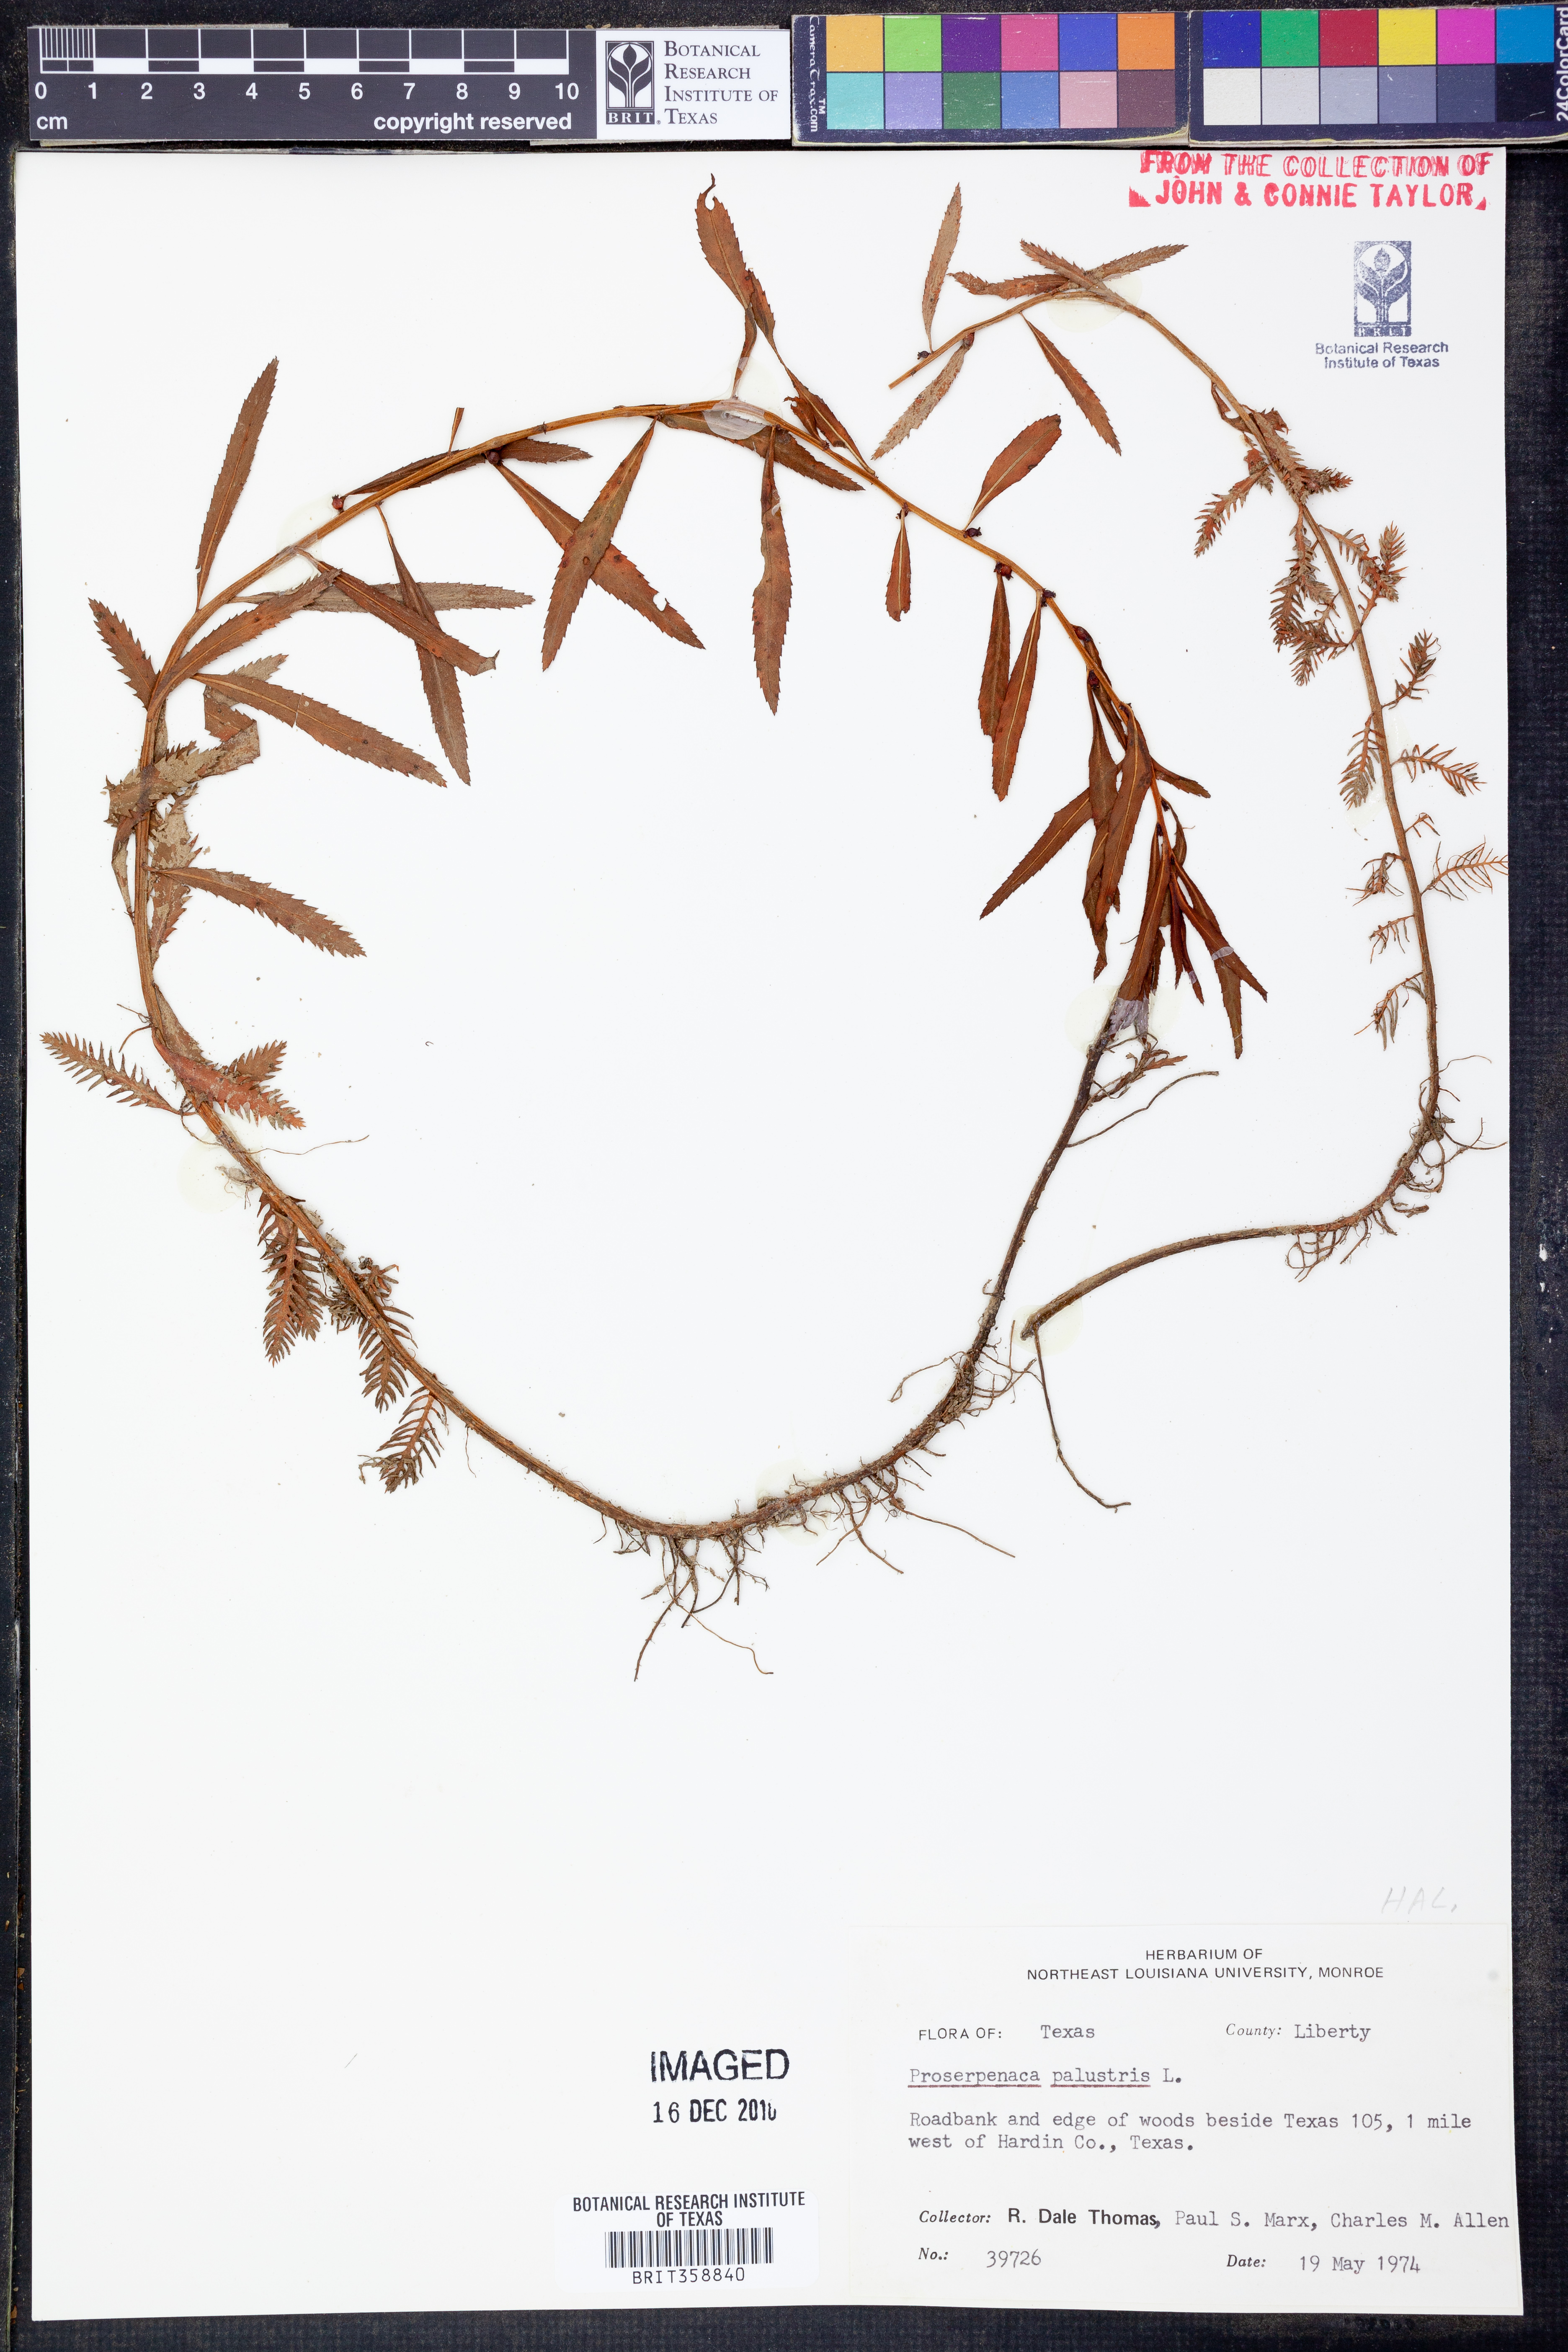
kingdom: Plantae
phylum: Tracheophyta
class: Magnoliopsida
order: Saxifragales
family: Haloragaceae
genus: Proserpinaca
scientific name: Proserpinaca palustris
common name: Marsh mermaidweed
